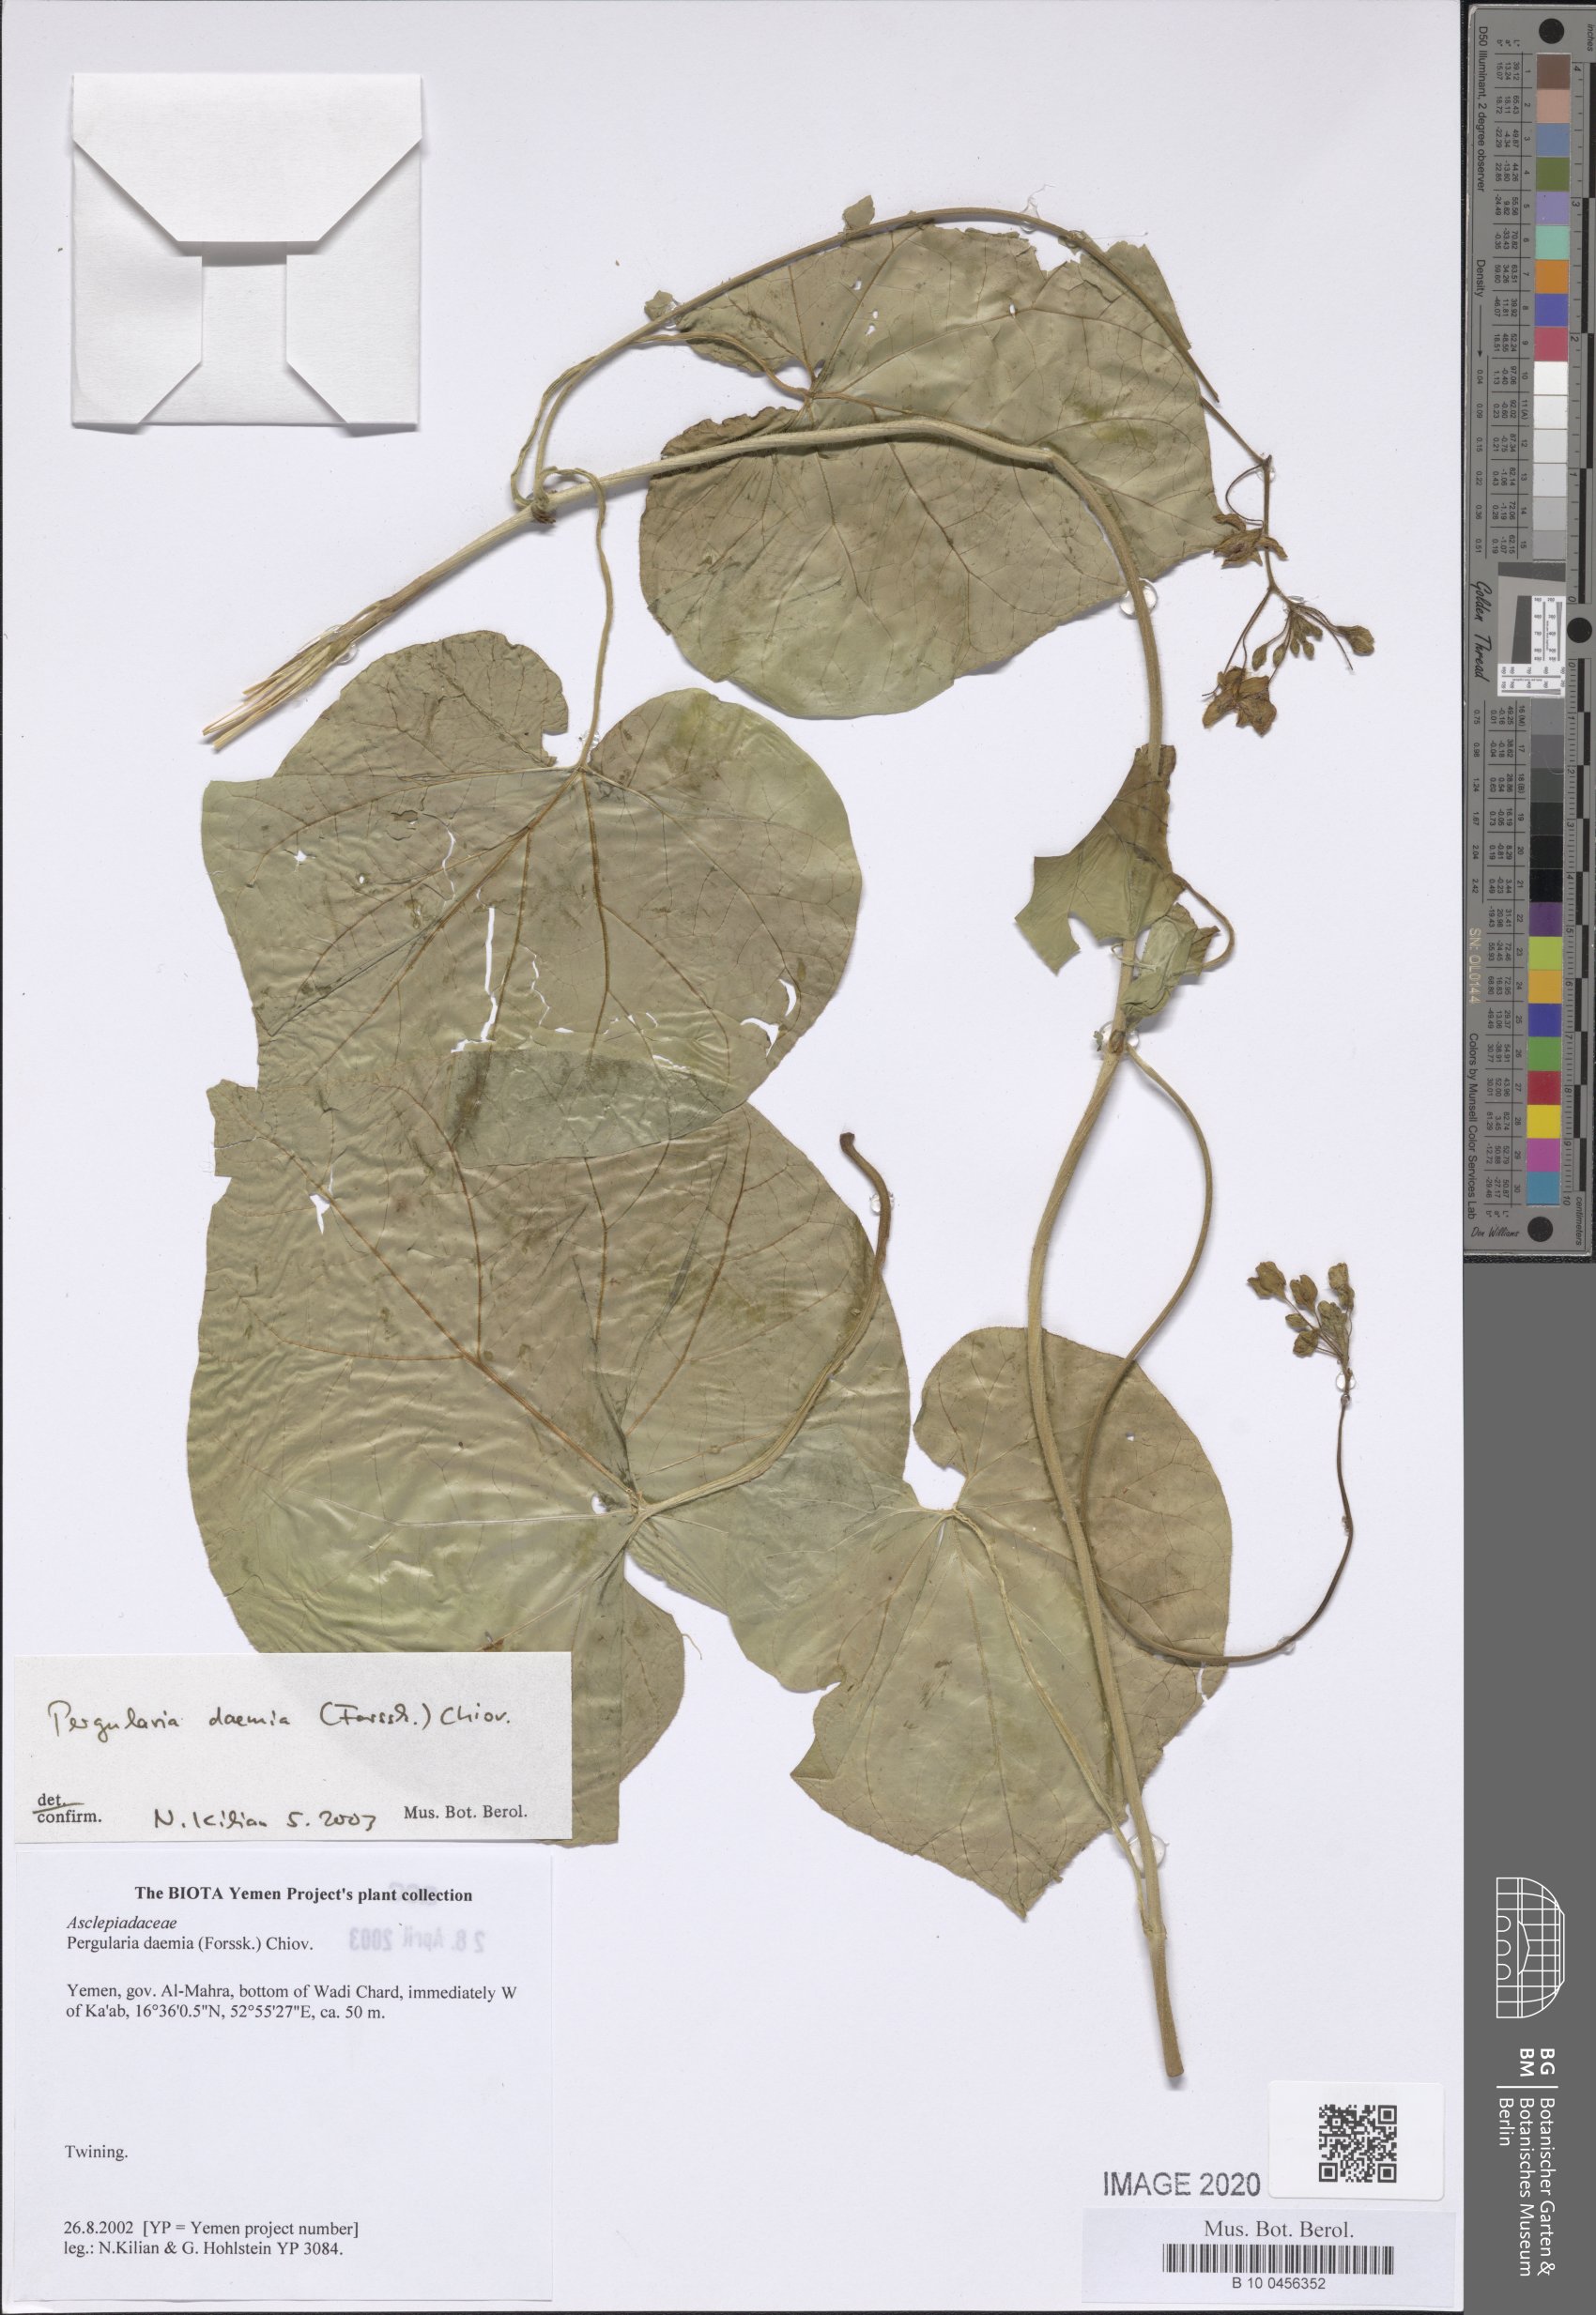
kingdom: Plantae
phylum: Tracheophyta
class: Magnoliopsida
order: Gentianales
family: Apocynaceae
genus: Pergularia
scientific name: Pergularia daemia
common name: Trellis-vine
